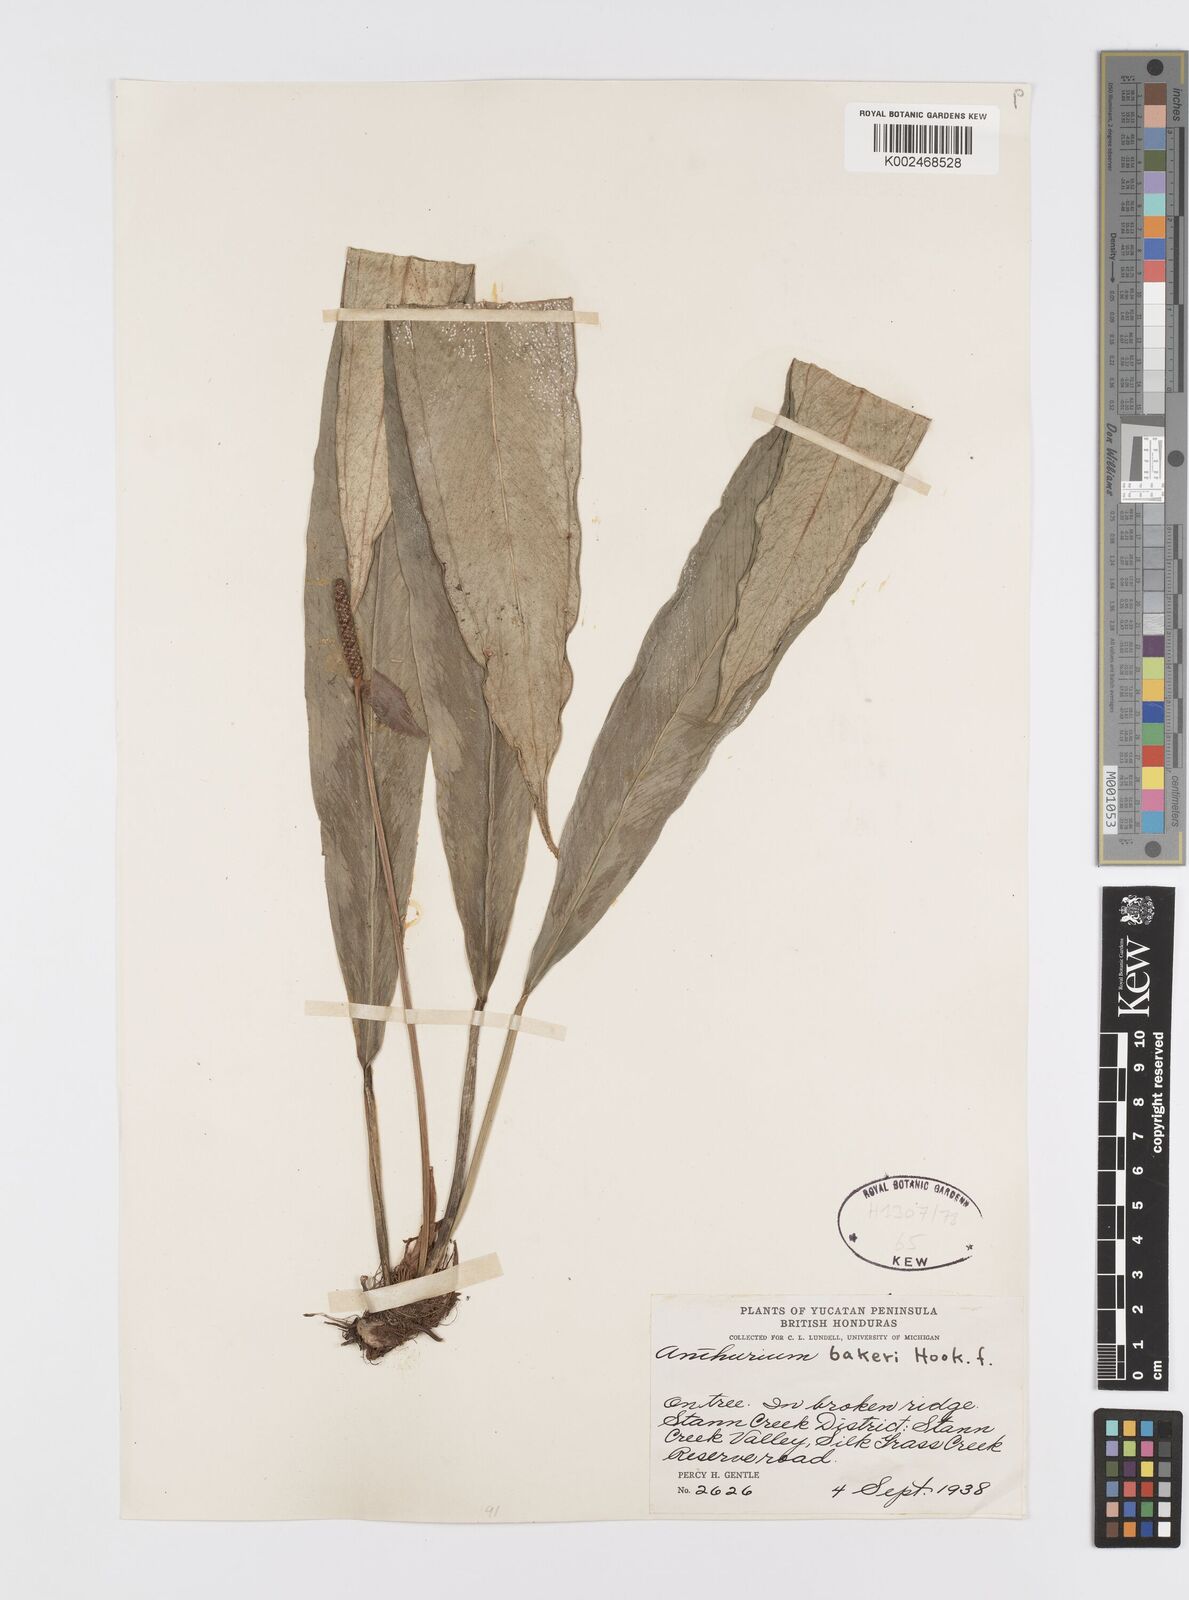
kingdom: Plantae
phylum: Tracheophyta
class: Liliopsida
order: Alismatales
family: Araceae
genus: Anthurium
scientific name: Anthurium bakeri
